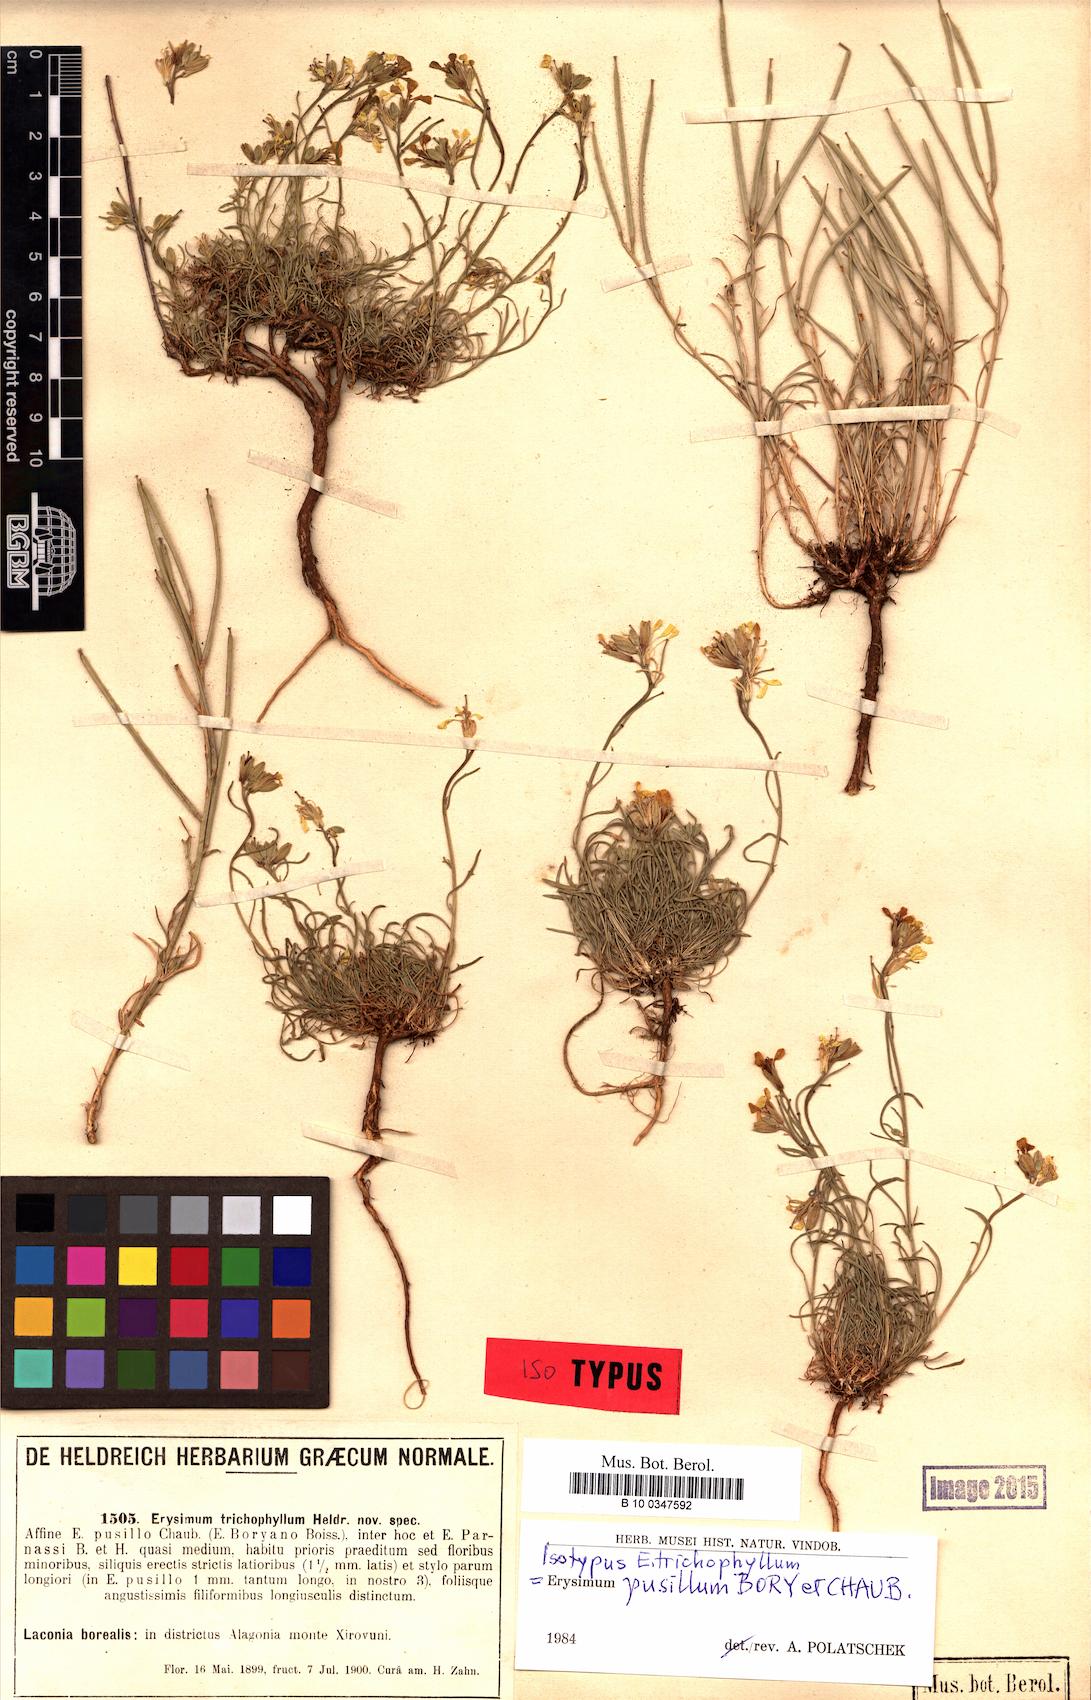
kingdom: Plantae
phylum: Tracheophyta
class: Magnoliopsida
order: Brassicales
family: Brassicaceae
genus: Erysimum
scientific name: Erysimum pusillum
